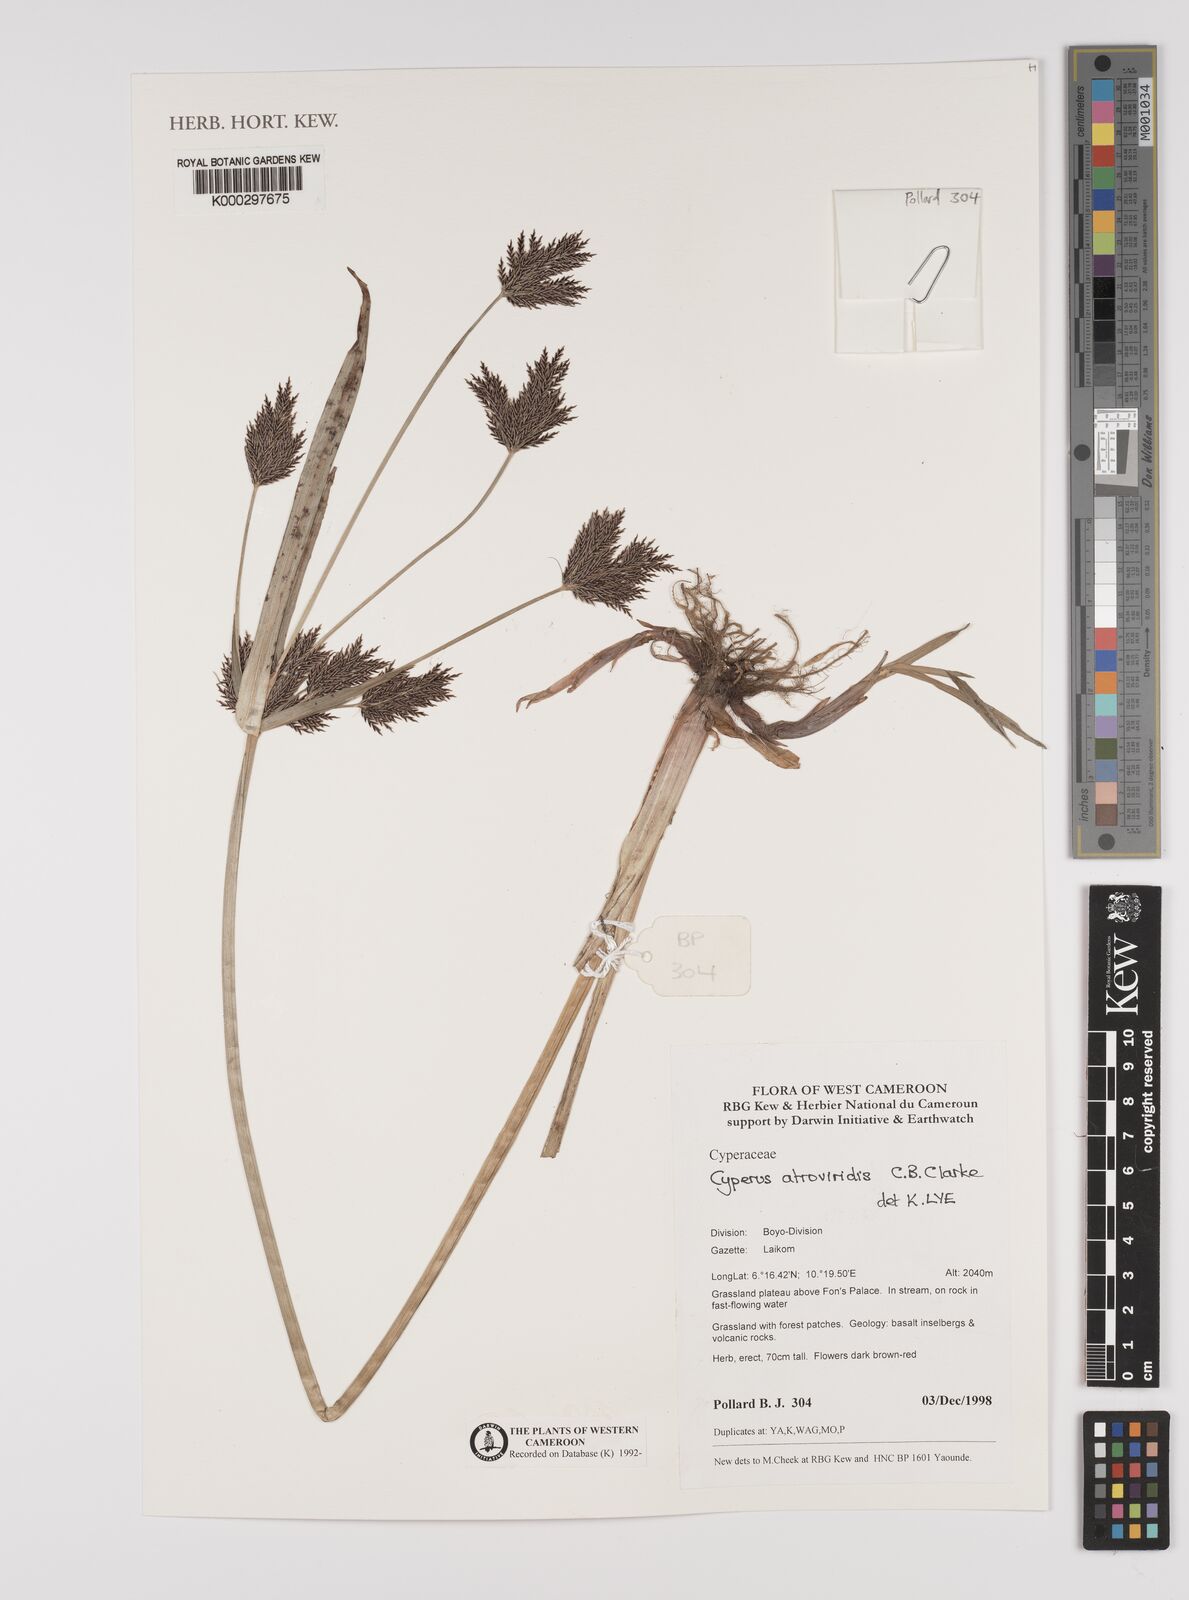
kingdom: Plantae
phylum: Tracheophyta
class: Liliopsida
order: Poales
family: Cyperaceae
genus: Cyperus
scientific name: Cyperus aterrimus
